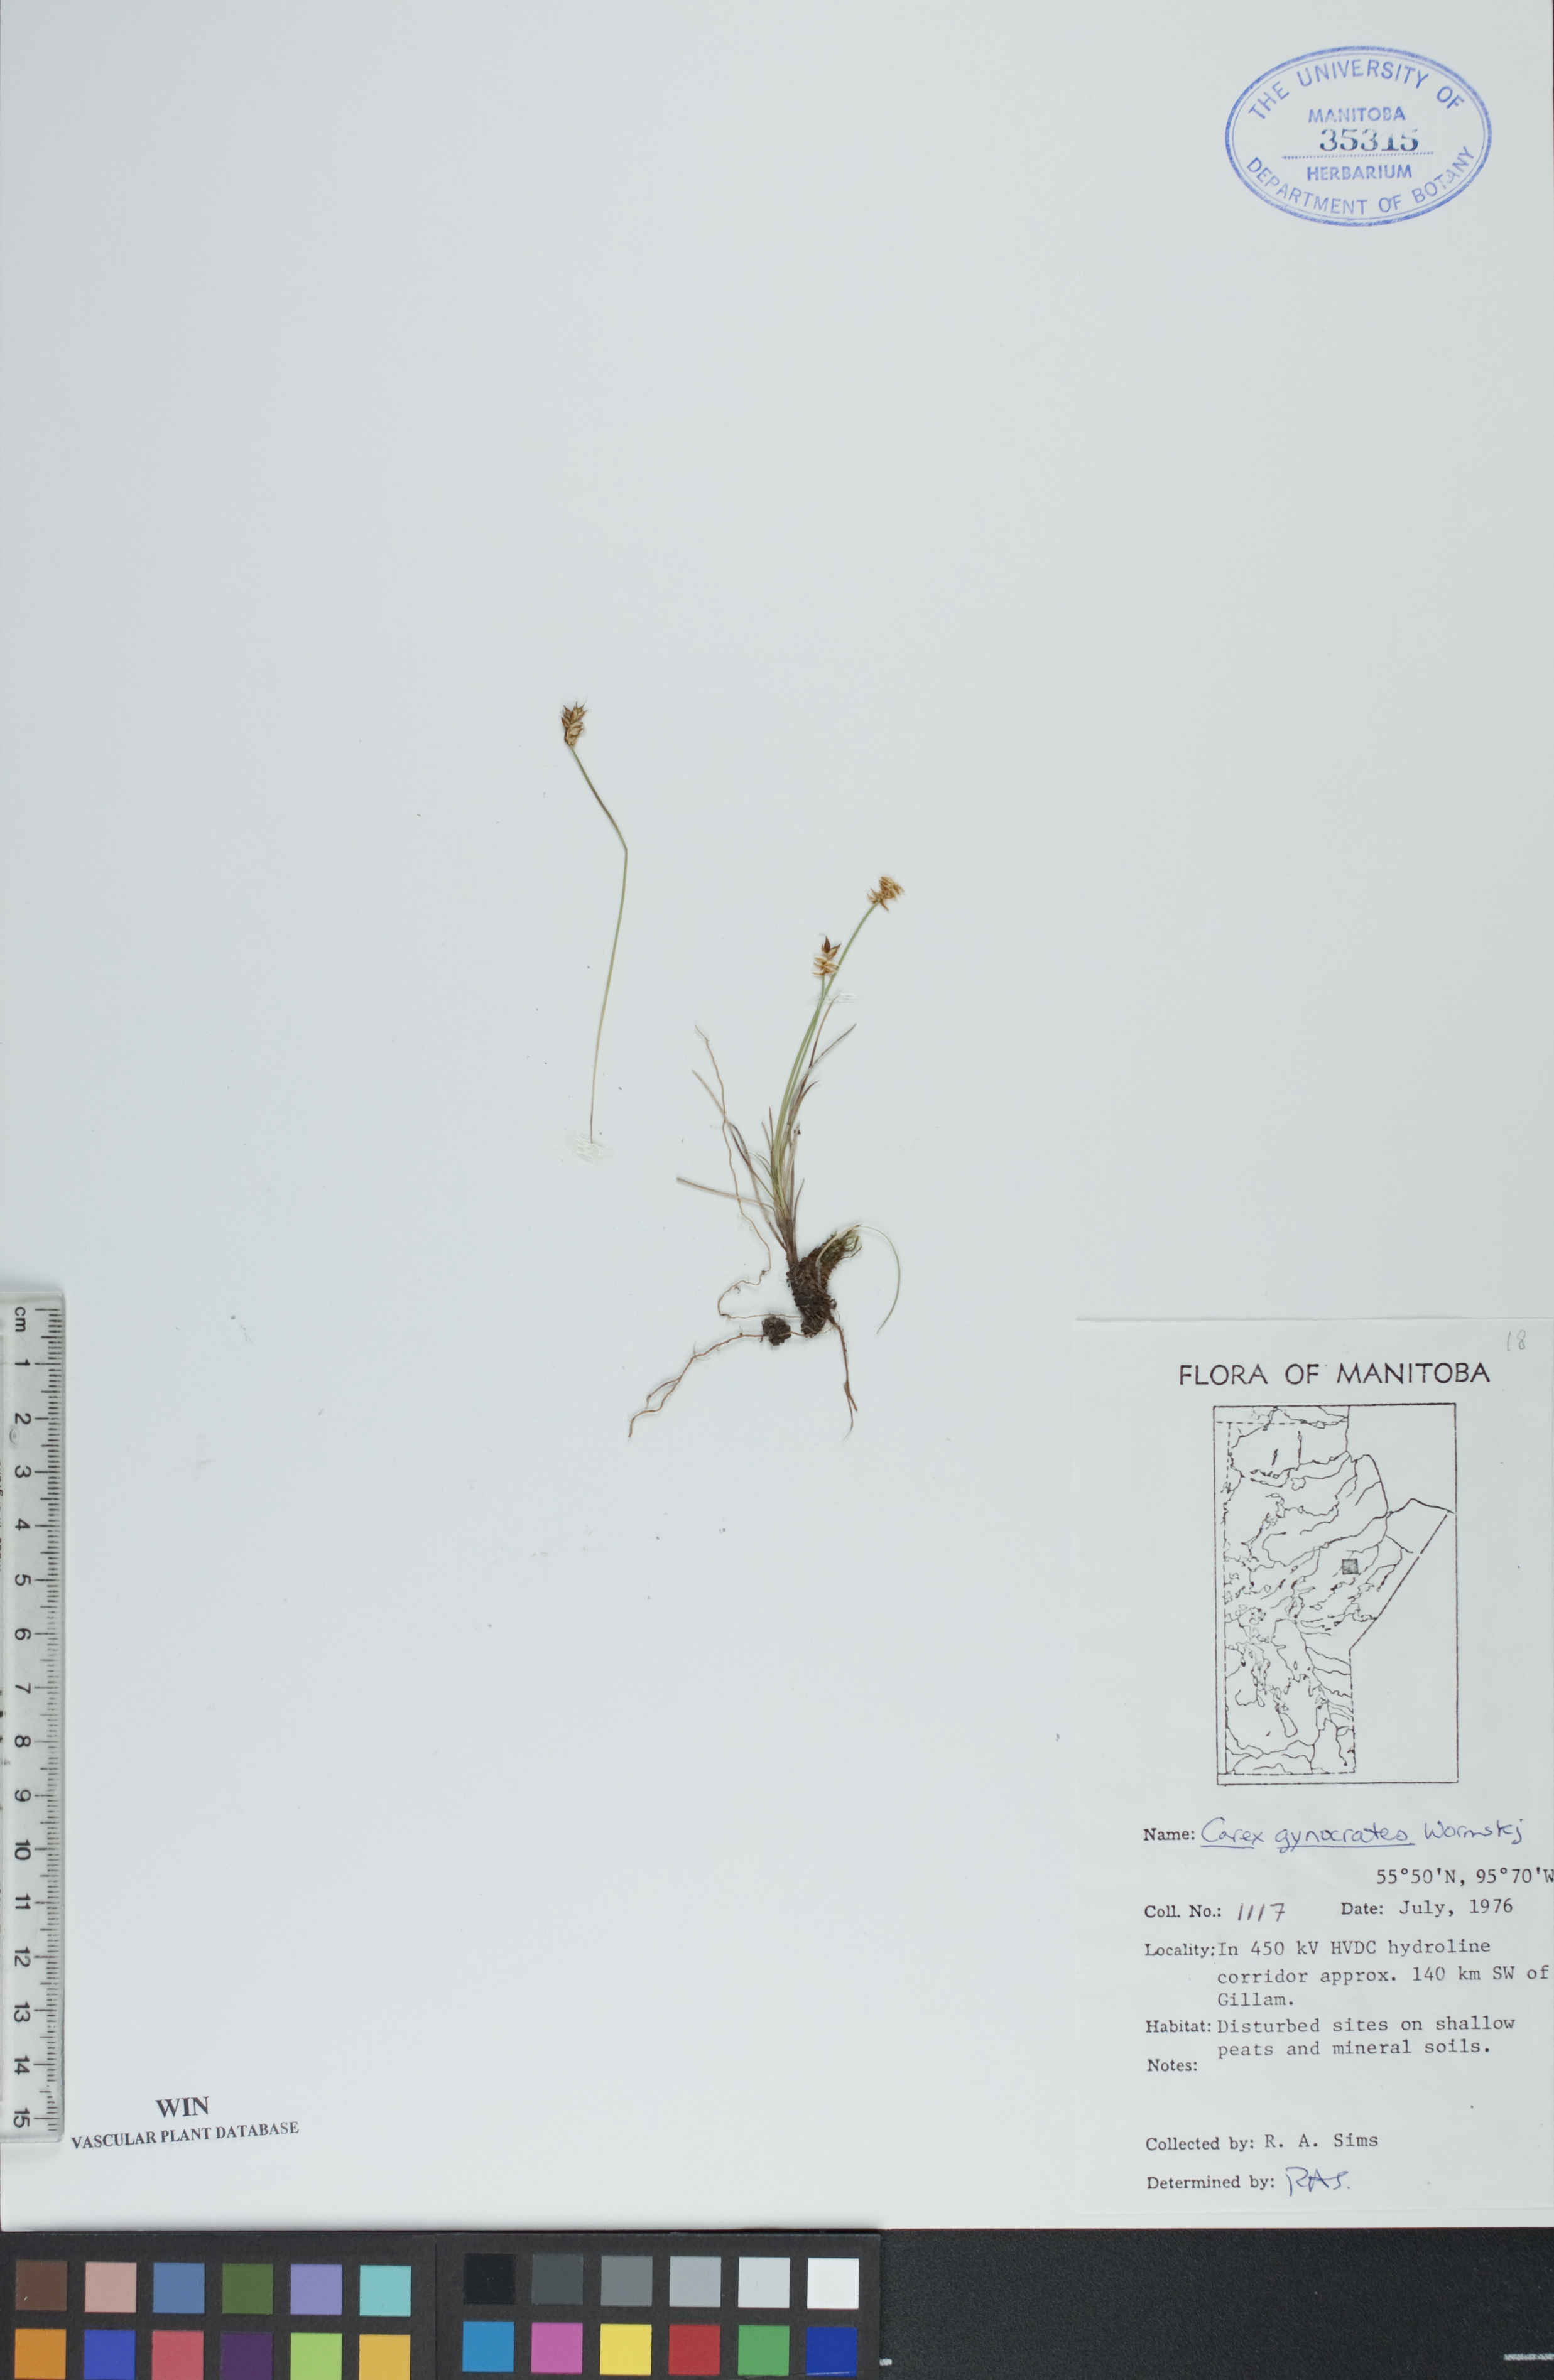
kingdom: Plantae
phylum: Tracheophyta
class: Liliopsida
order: Poales
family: Cyperaceae
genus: Carex
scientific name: Carex nardina
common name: Nard sedge
